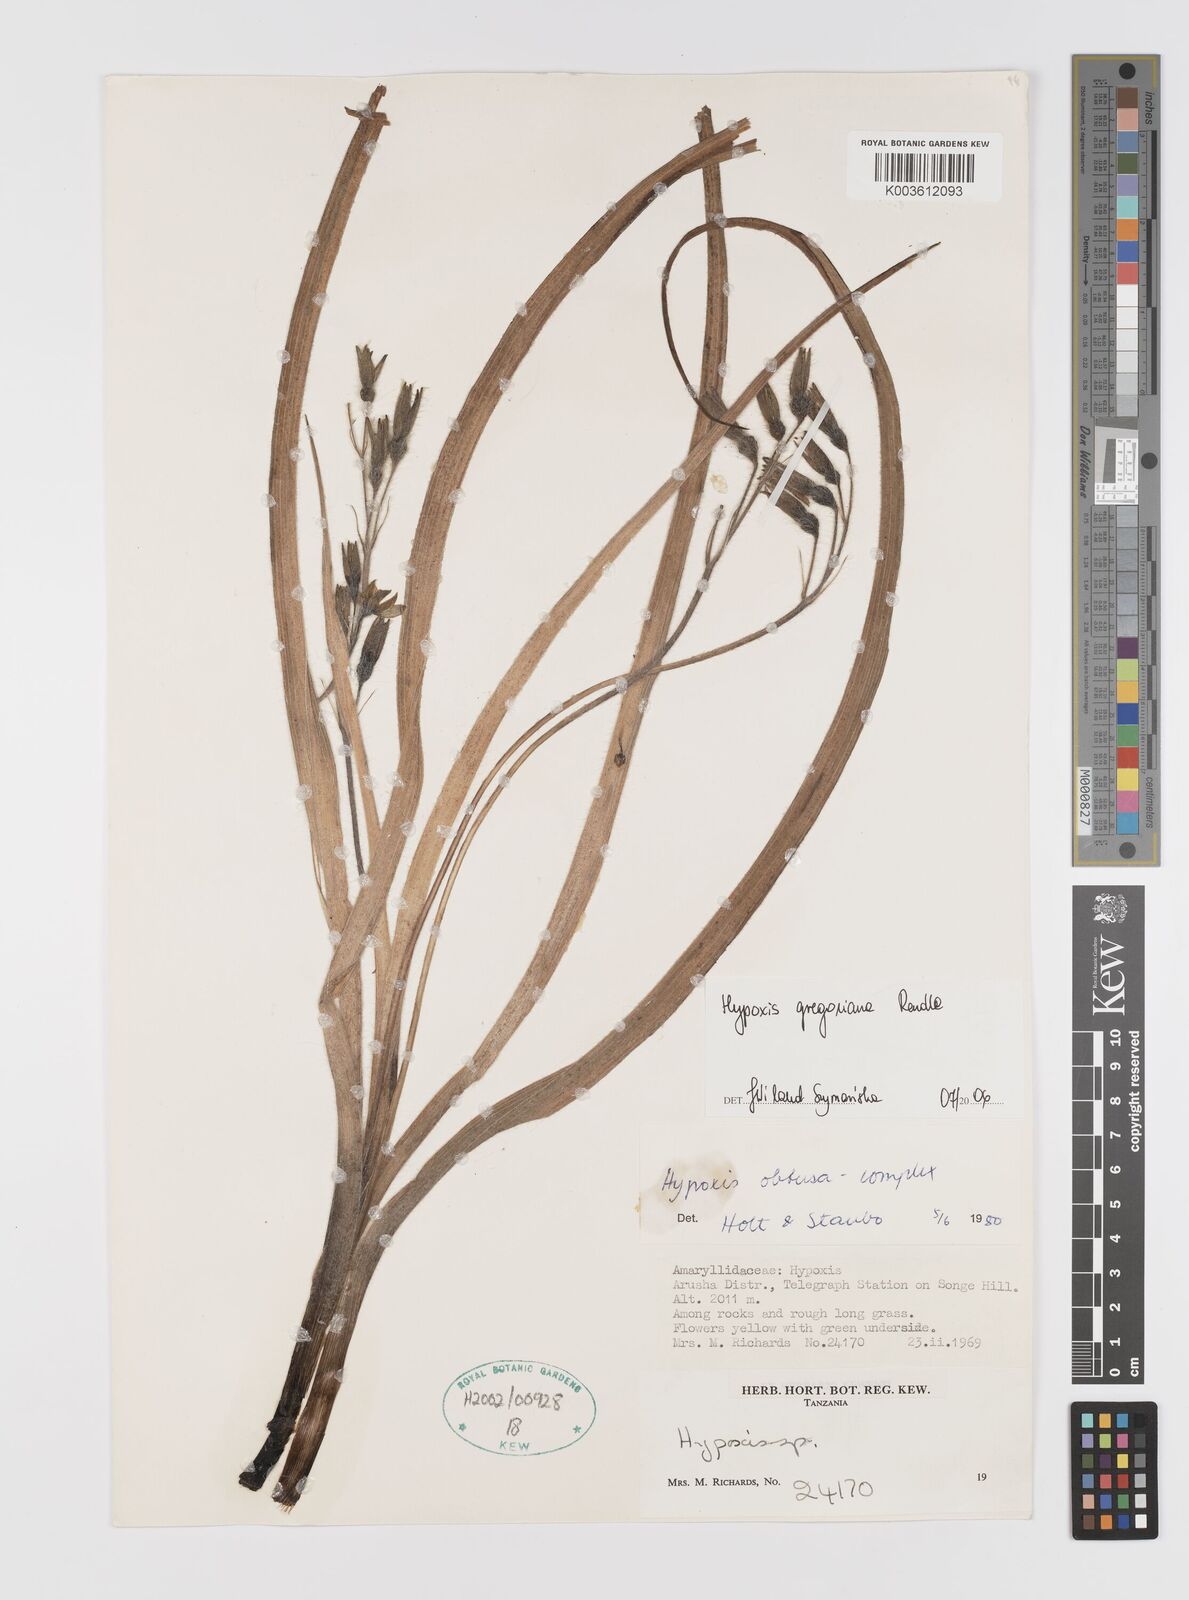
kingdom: Plantae
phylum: Tracheophyta
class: Liliopsida
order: Asparagales
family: Hypoxidaceae
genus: Hypoxis
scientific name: Hypoxis gregoriana
